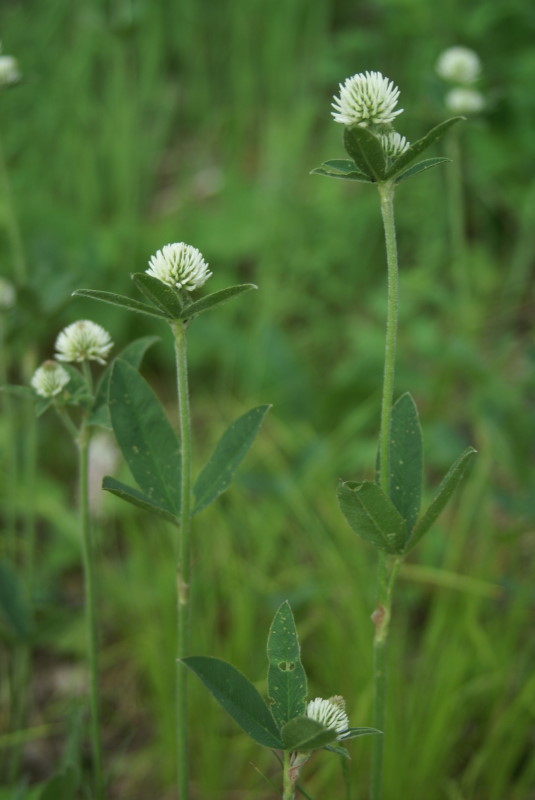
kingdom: Plantae
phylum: Tracheophyta
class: Magnoliopsida
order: Fabales
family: Fabaceae
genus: Trifolium
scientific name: Trifolium montanum
